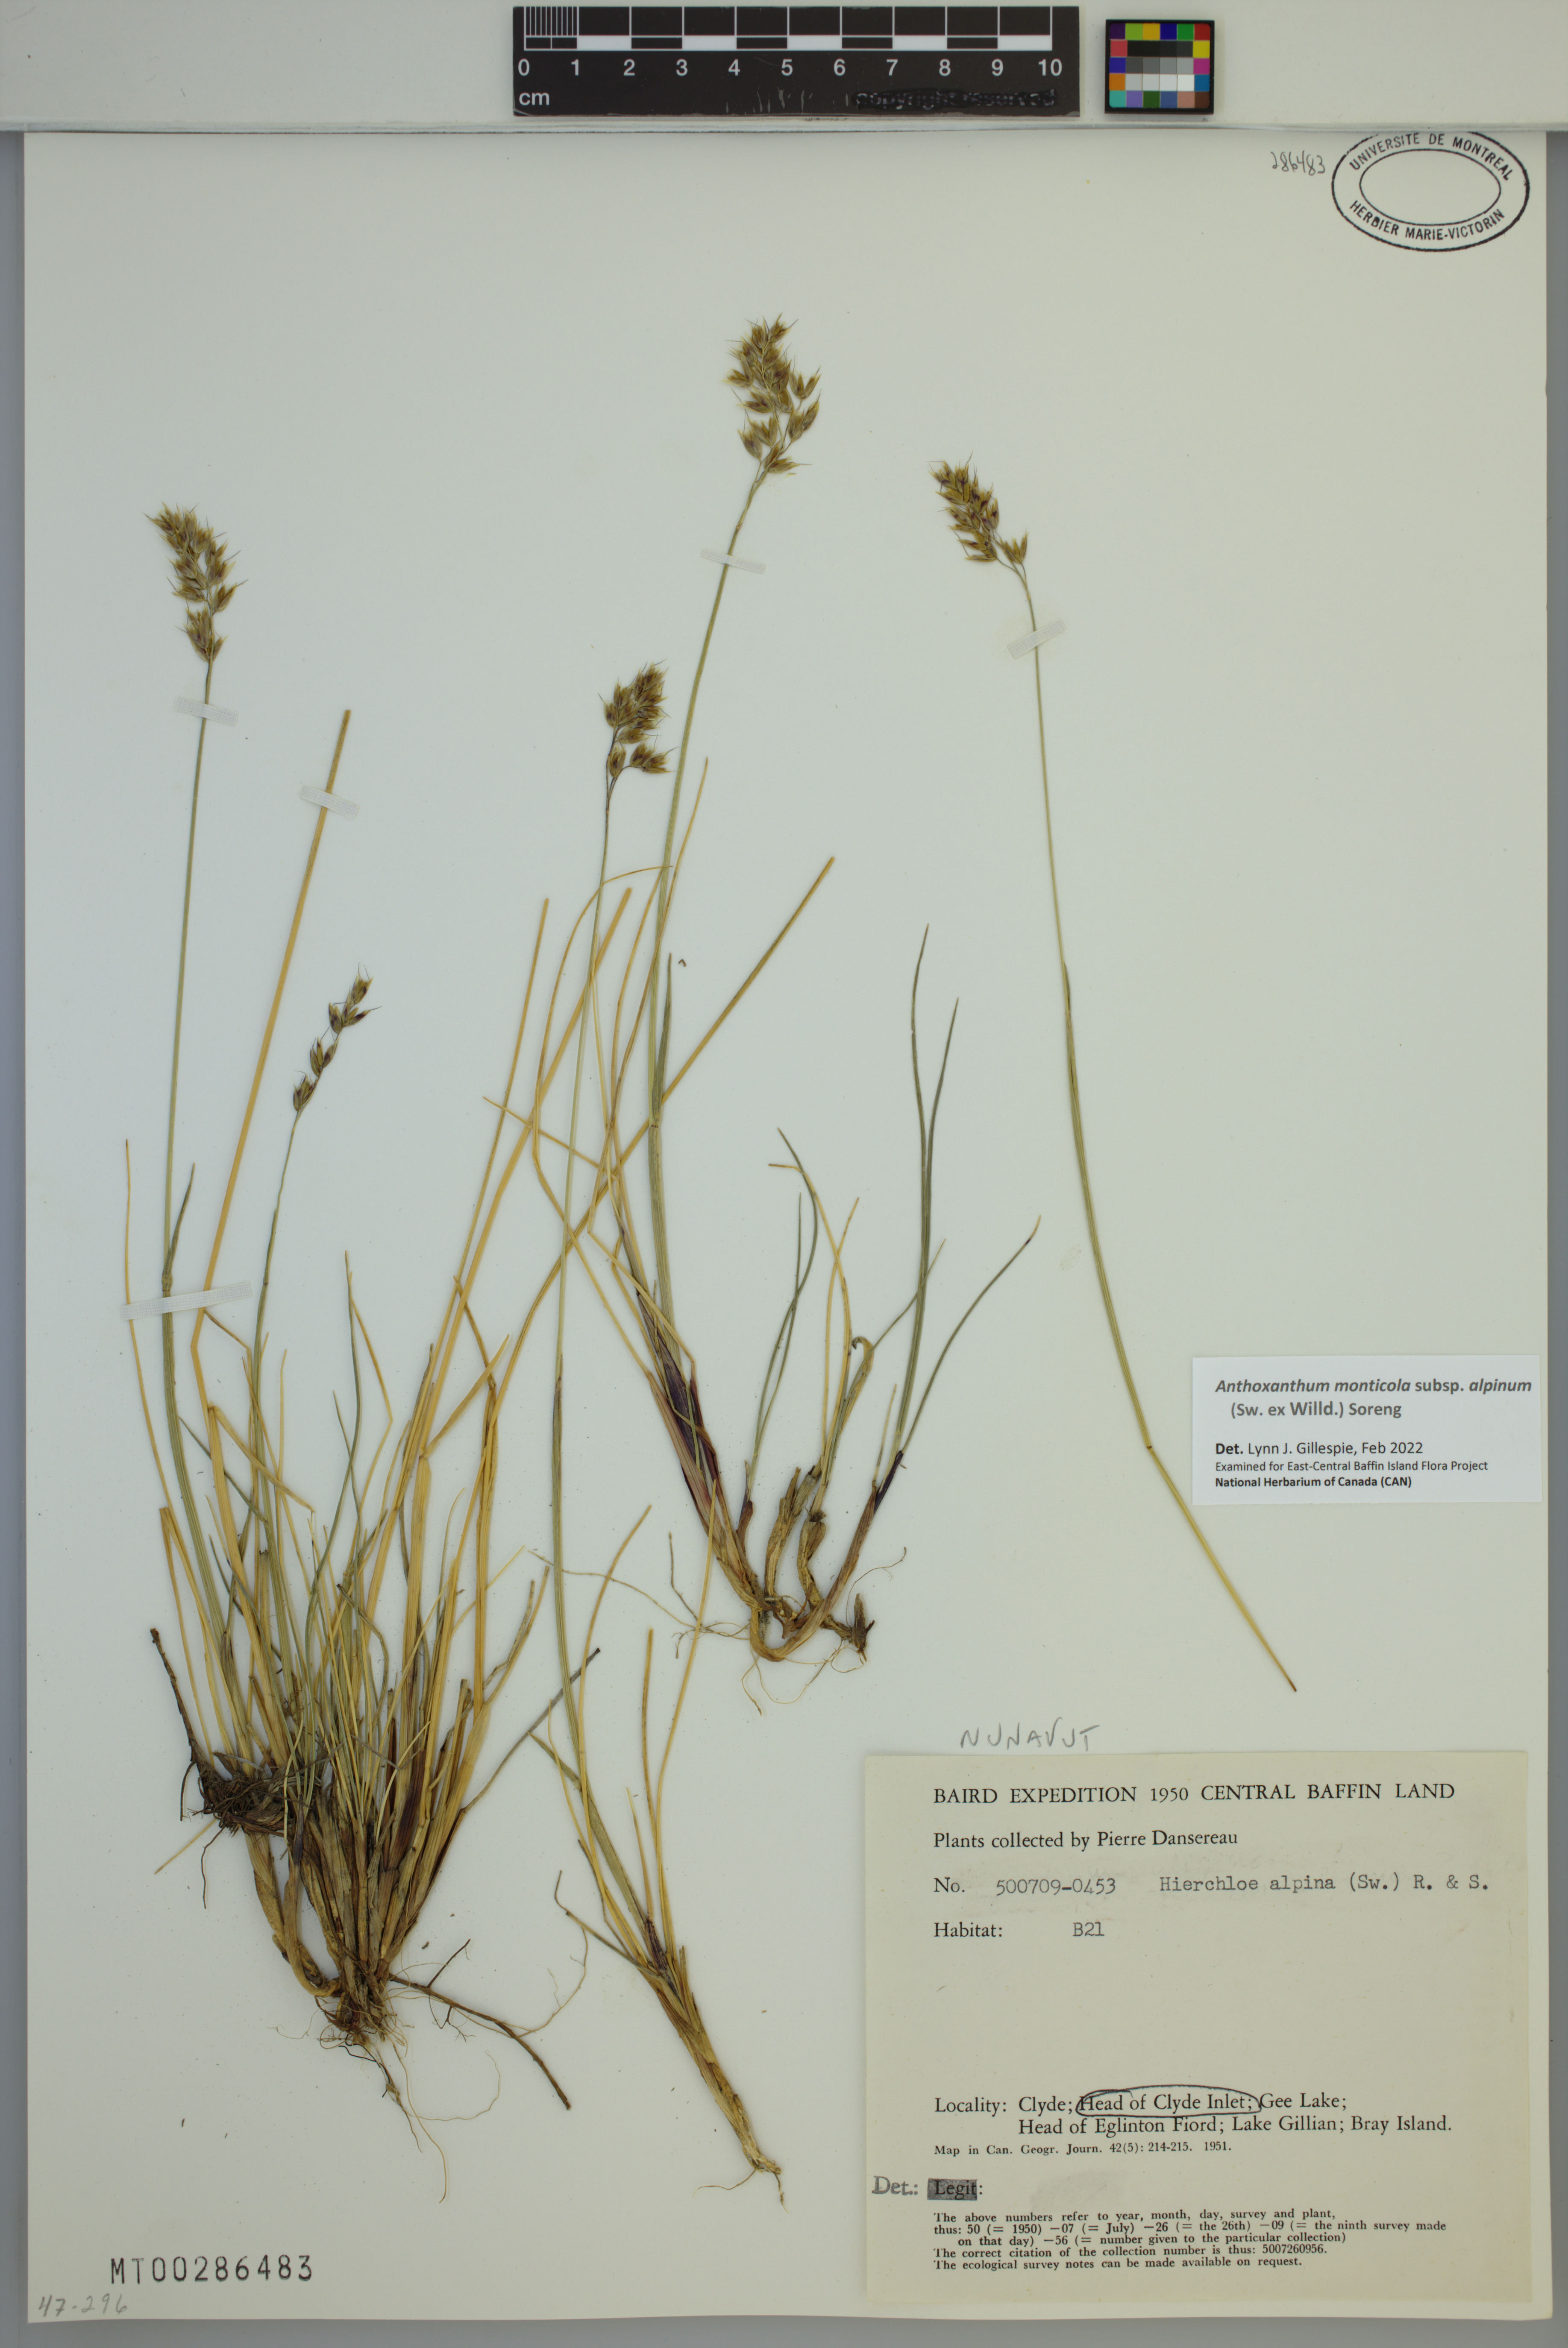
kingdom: Plantae
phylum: Tracheophyta
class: Liliopsida
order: Poales
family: Poaceae
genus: Anthoxanthum
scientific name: Anthoxanthum monticola
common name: Alpine sweetgrass
